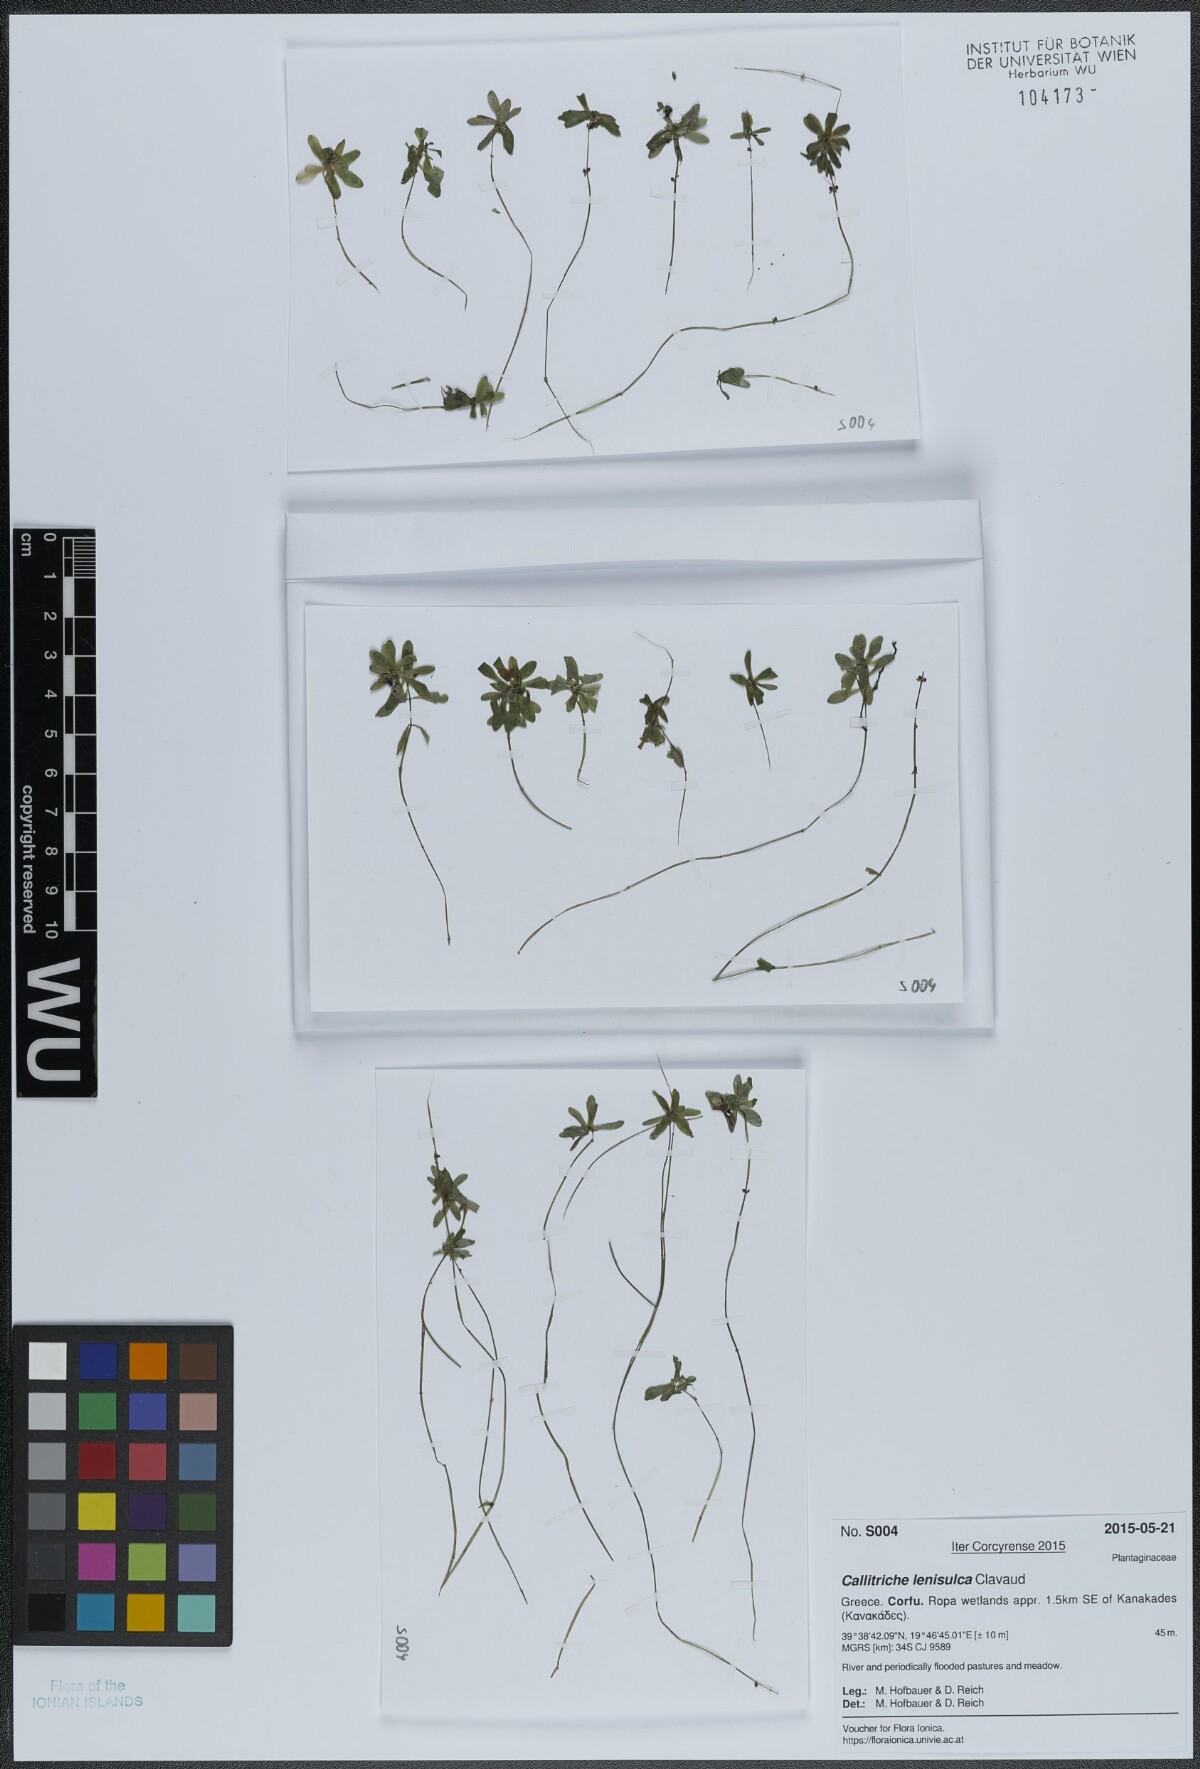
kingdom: Plantae
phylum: Tracheophyta
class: Magnoliopsida
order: Lamiales
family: Plantaginaceae
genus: Callitriche
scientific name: Callitriche lenisulca
